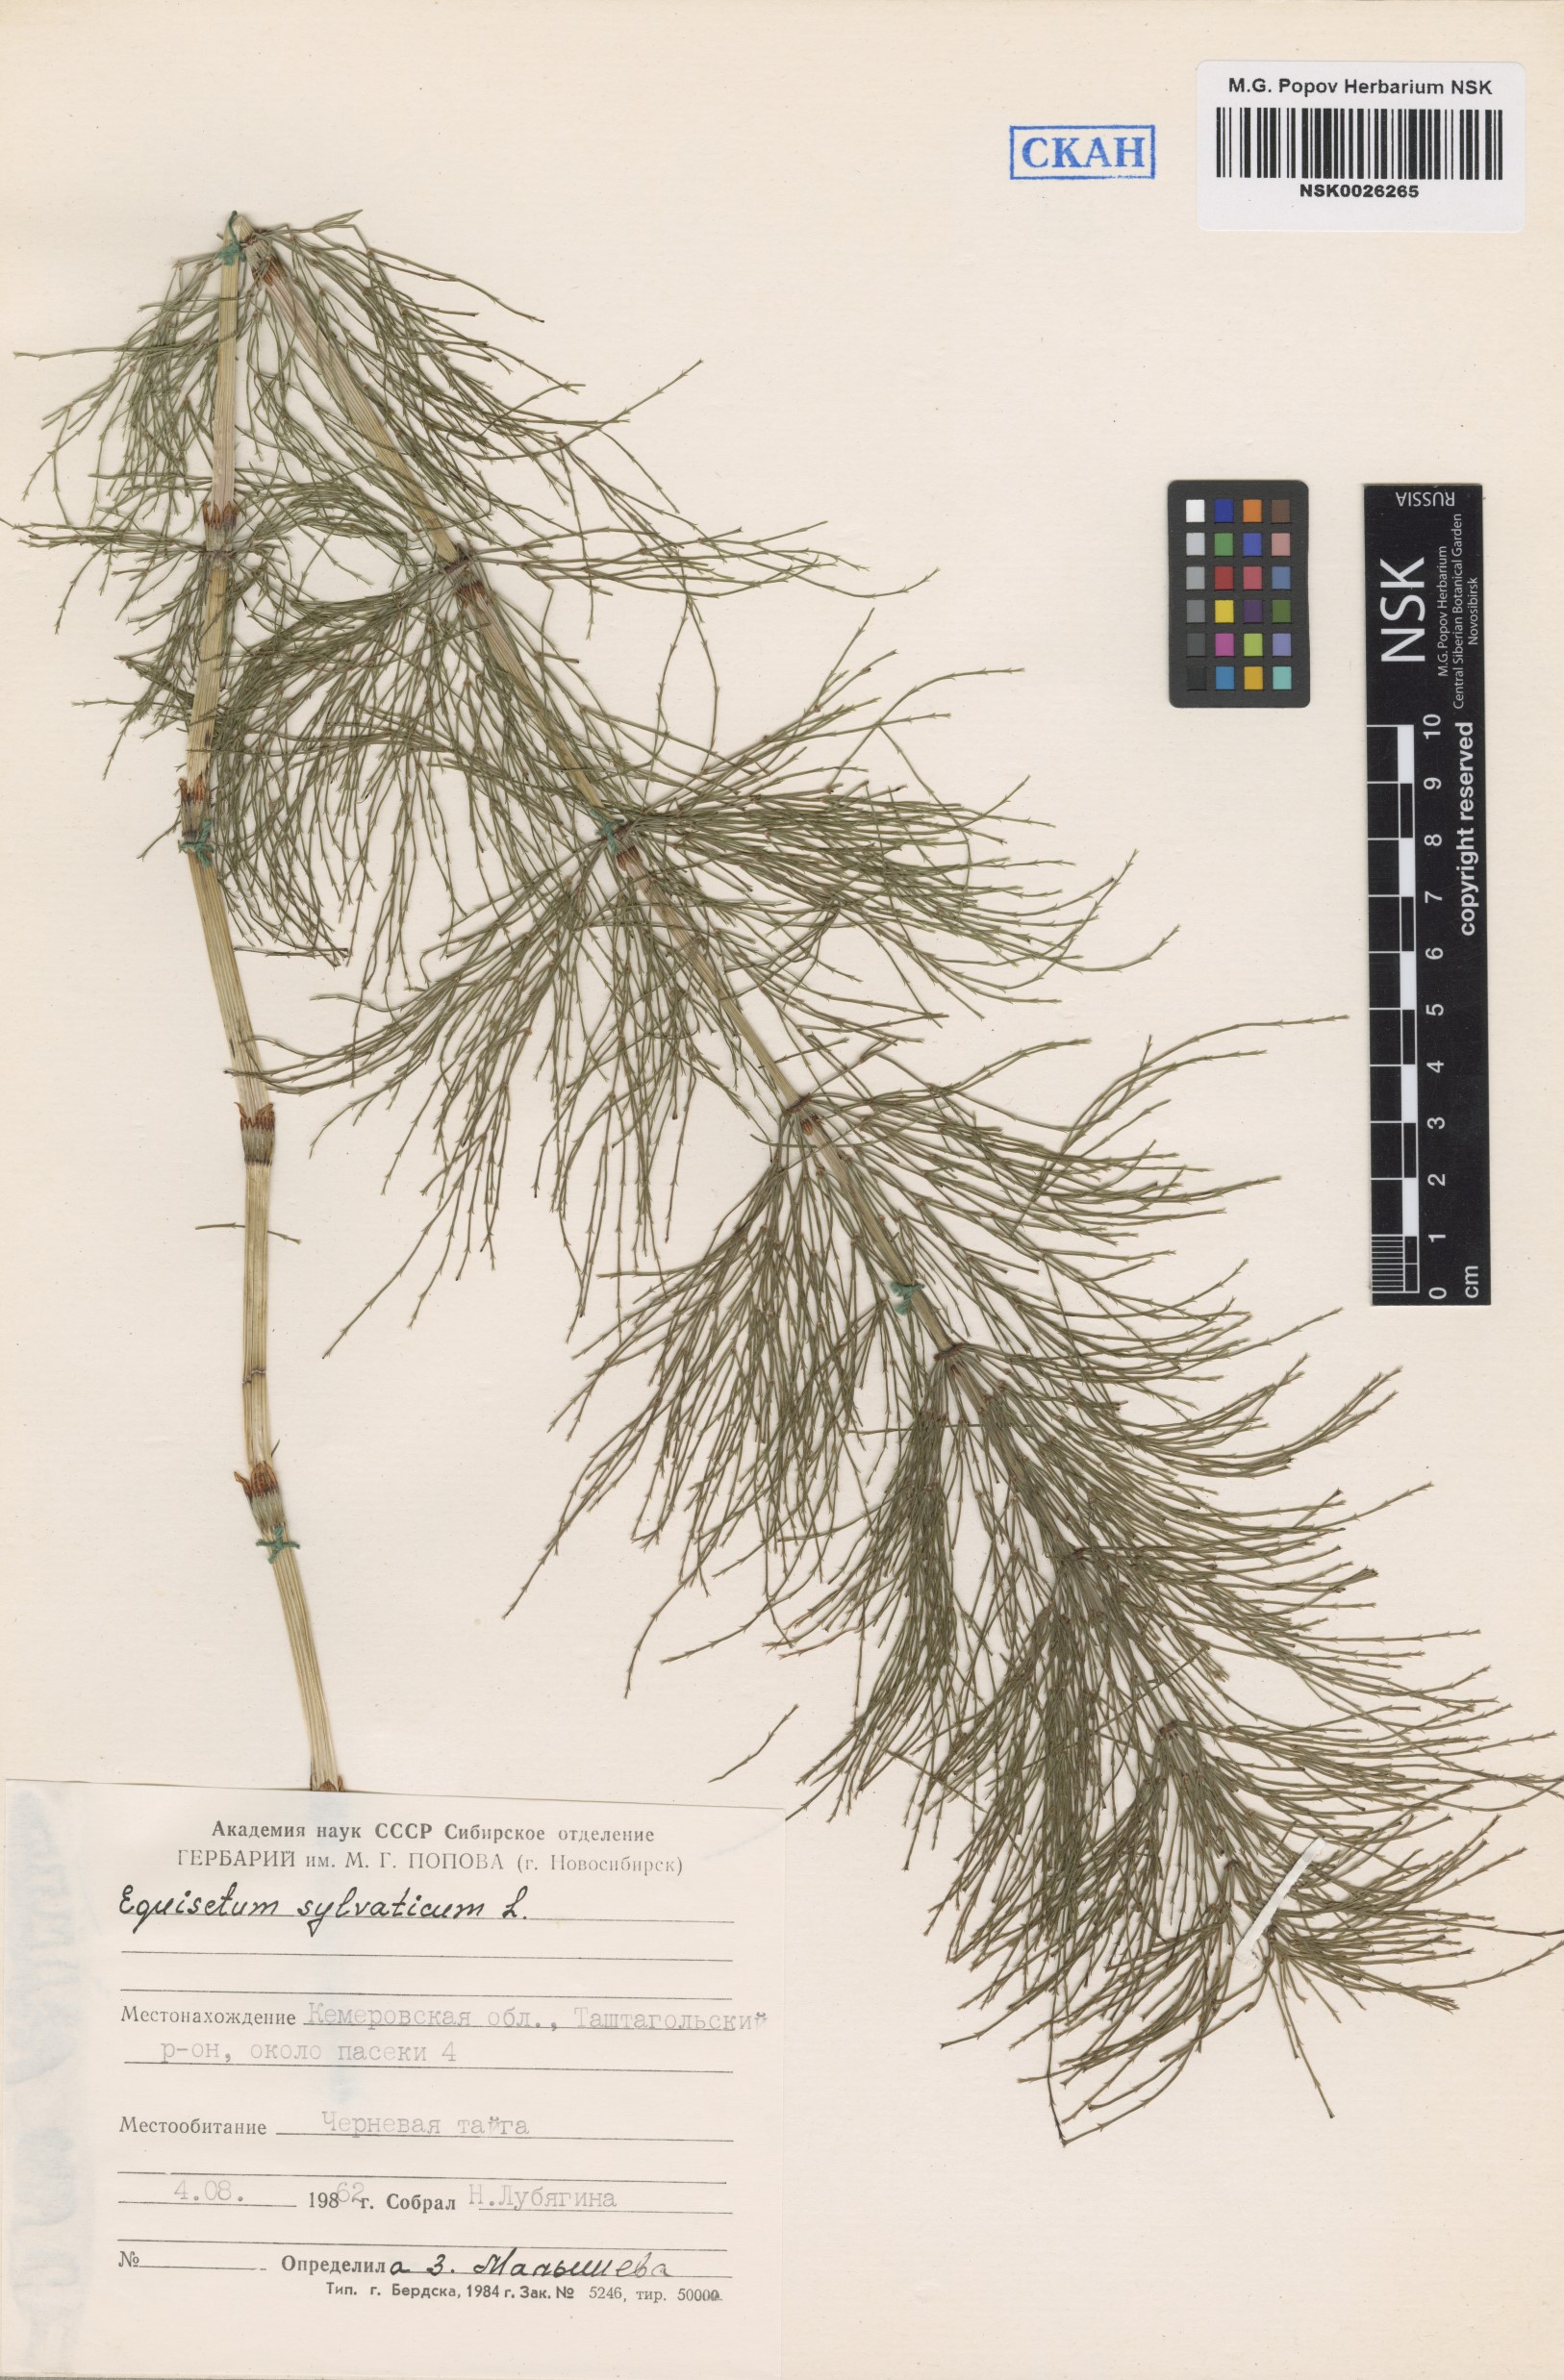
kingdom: Plantae
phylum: Tracheophyta
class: Polypodiopsida
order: Equisetales
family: Equisetaceae
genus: Equisetum
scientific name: Equisetum sylvaticum
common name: Wood horsetail
